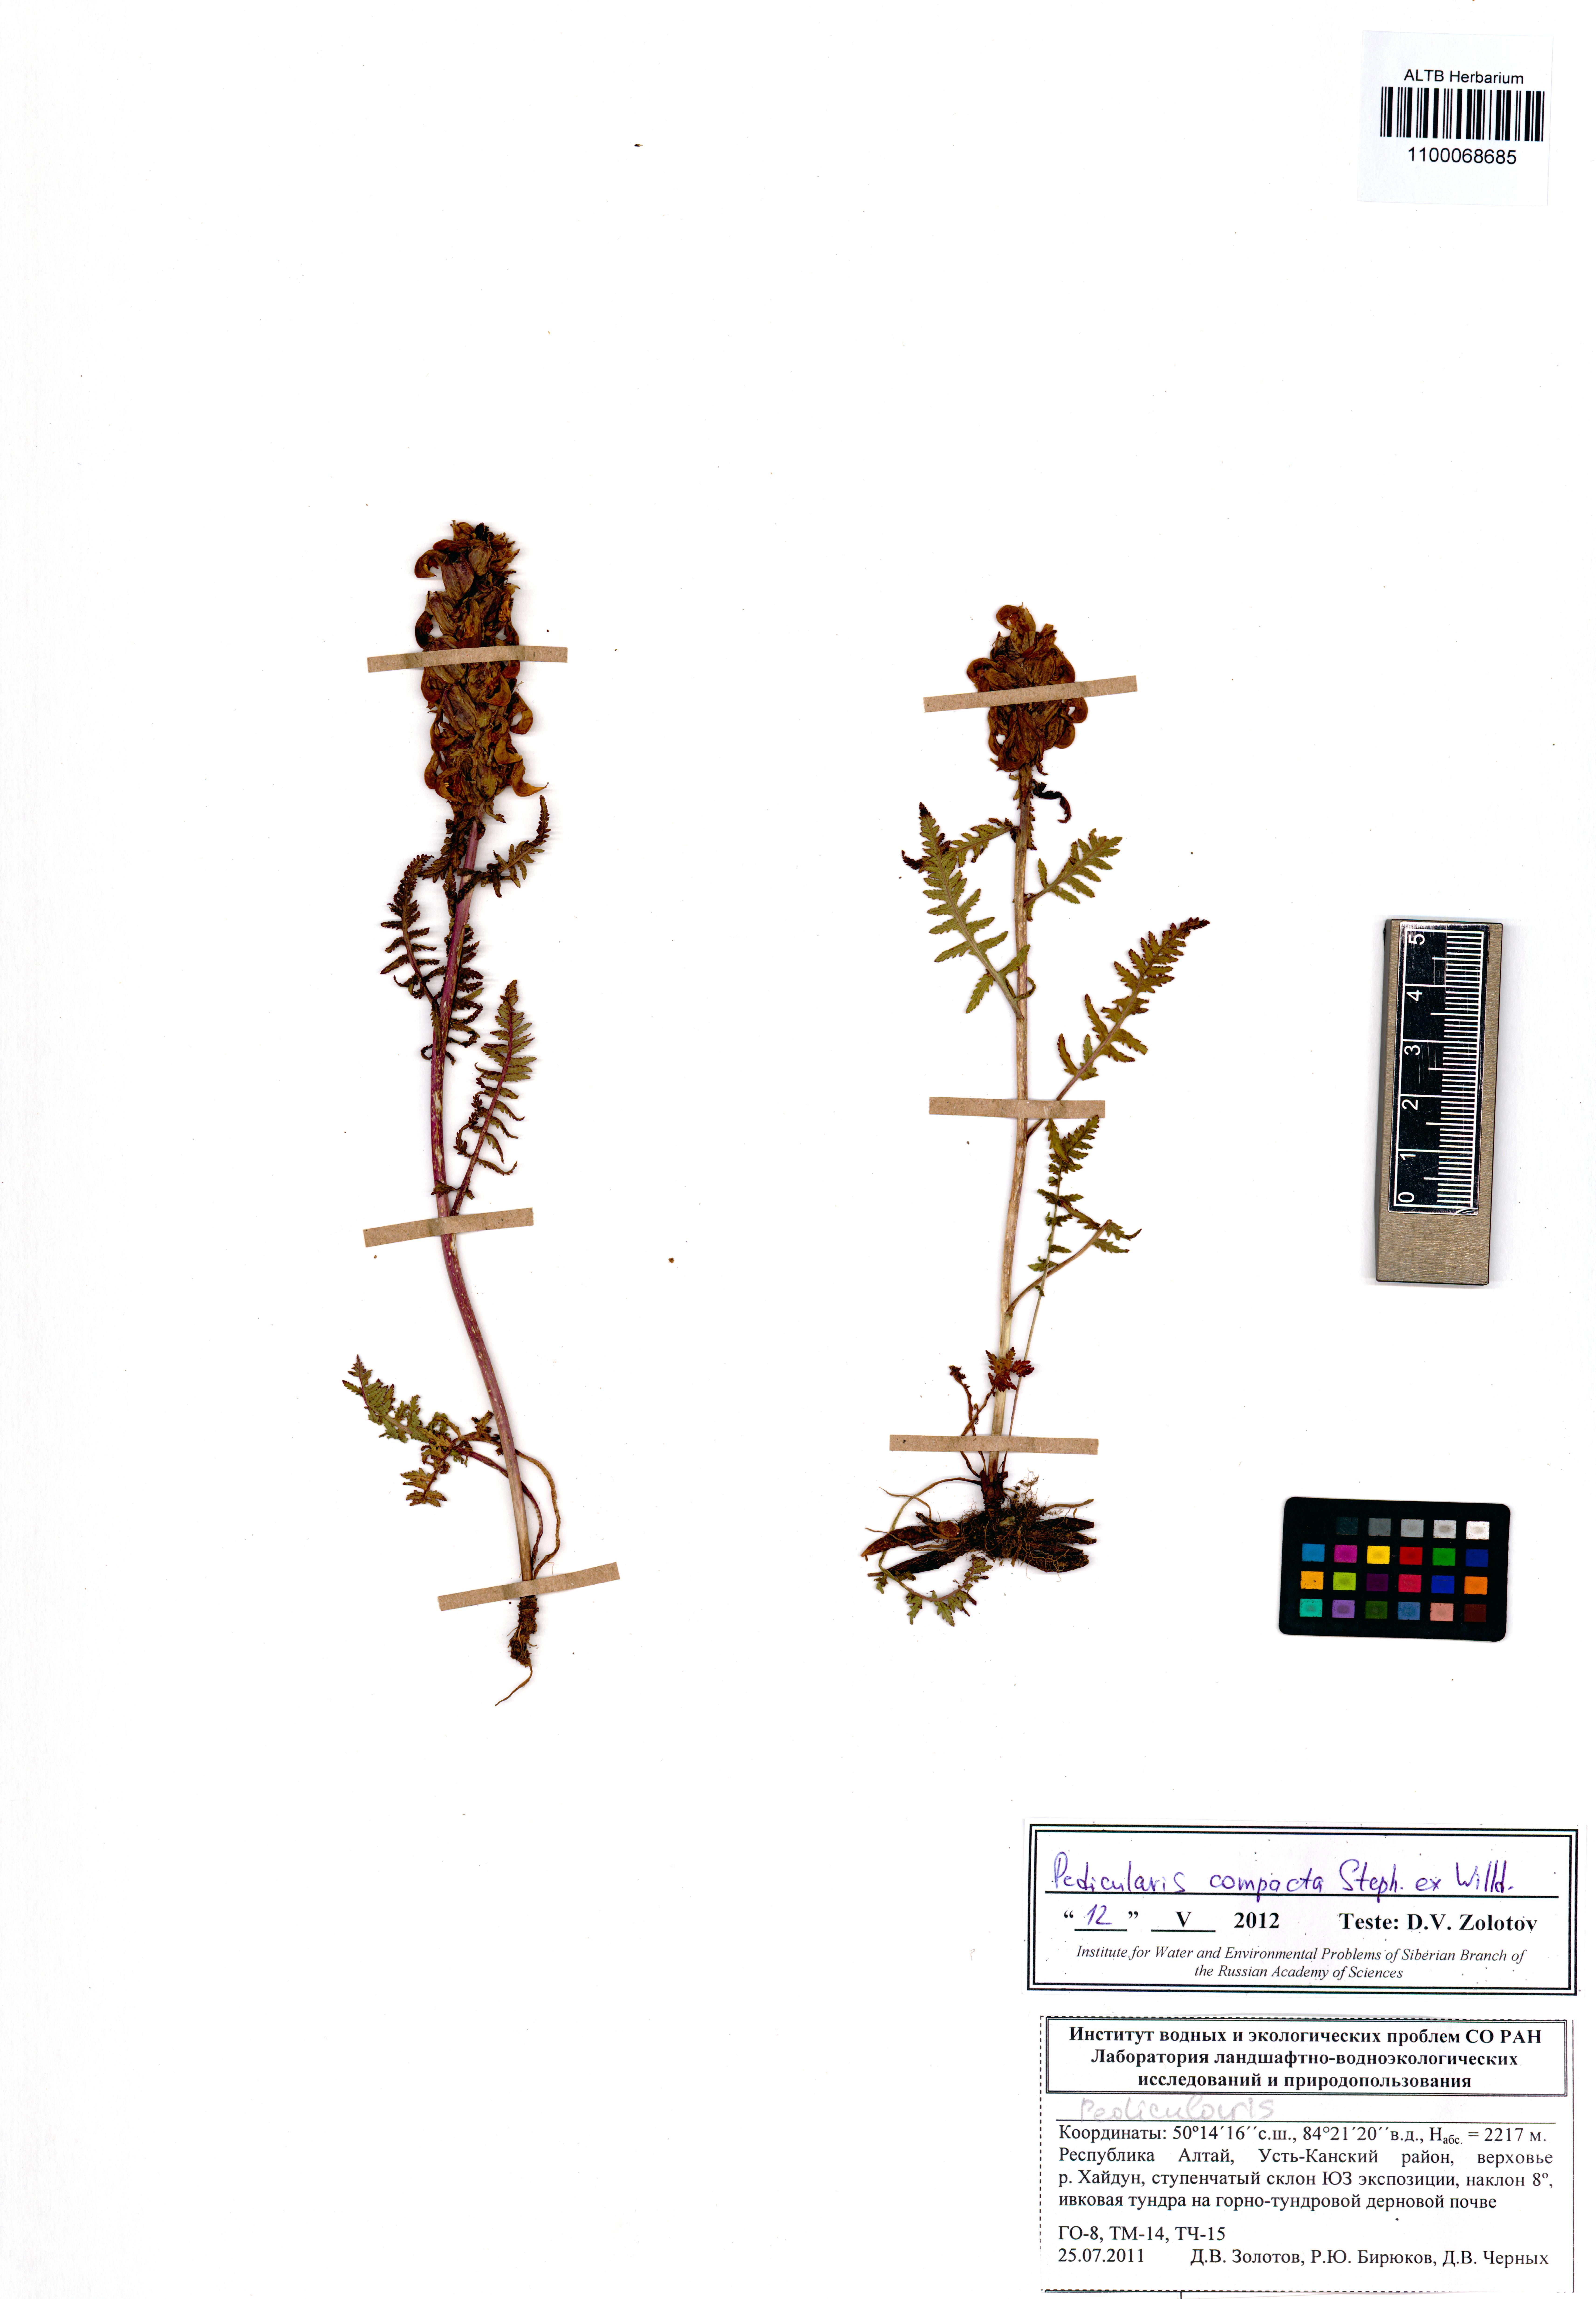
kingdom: Plantae
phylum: Tracheophyta
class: Magnoliopsida
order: Lamiales
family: Orobanchaceae
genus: Pedicularis
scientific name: Pedicularis compacta
